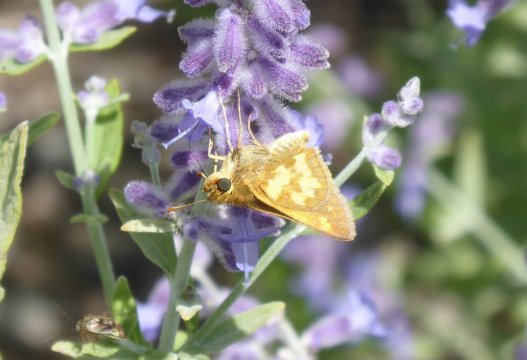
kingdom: Animalia
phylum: Arthropoda
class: Insecta
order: Lepidoptera
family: Hesperiidae
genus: Polites
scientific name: Polites coras
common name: Peck's Skipper
